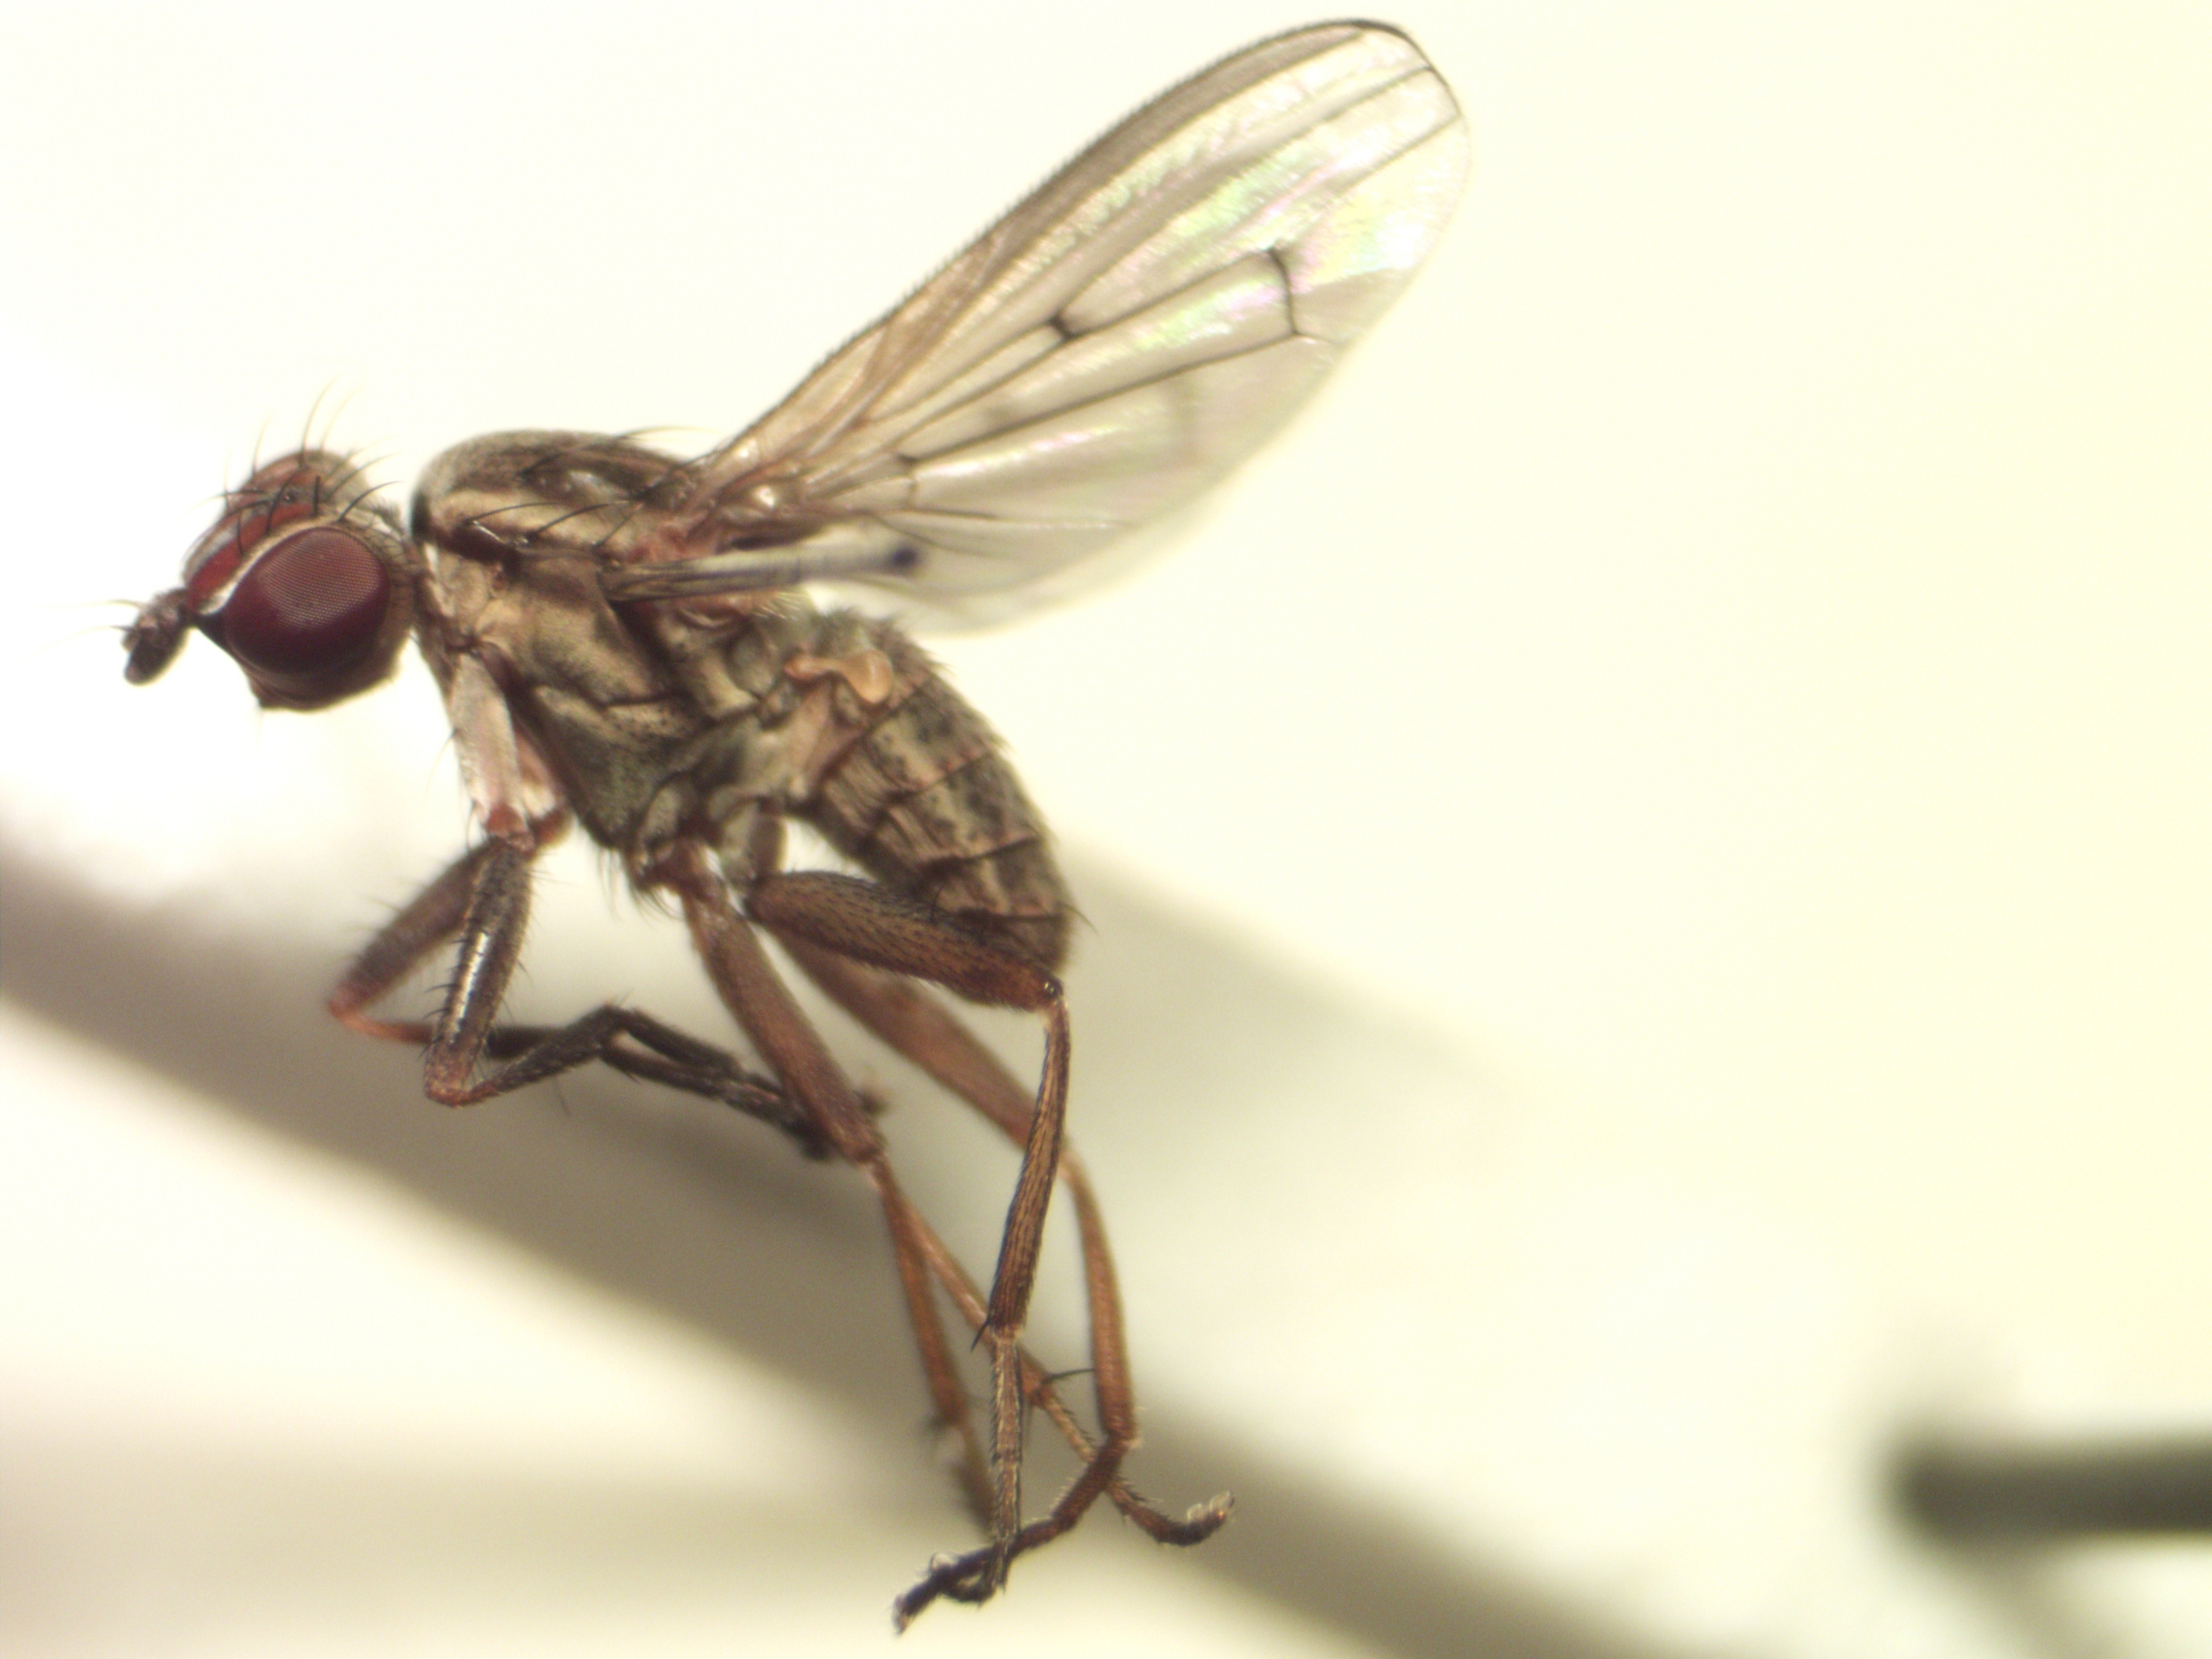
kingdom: Animalia
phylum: Arthropoda
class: Insecta
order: Diptera
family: Sciomyzidae
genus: Pherbellia
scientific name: Pherbellia cinerella
